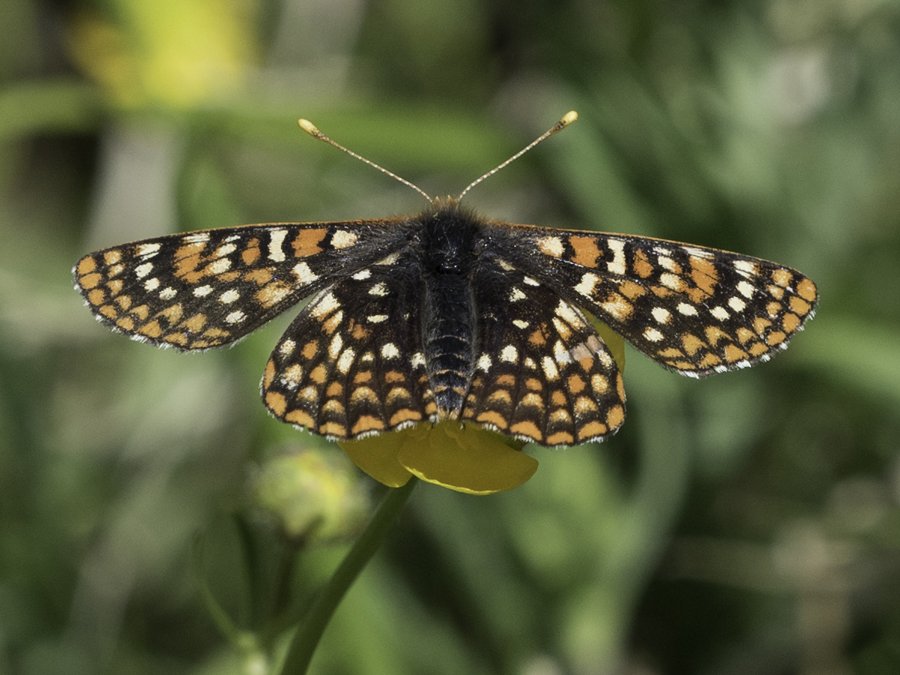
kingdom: Animalia
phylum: Arthropoda
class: Insecta
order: Lepidoptera
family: Nymphalidae
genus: Occidryas
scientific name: Occidryas anicia
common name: Anicia Checkerspot
